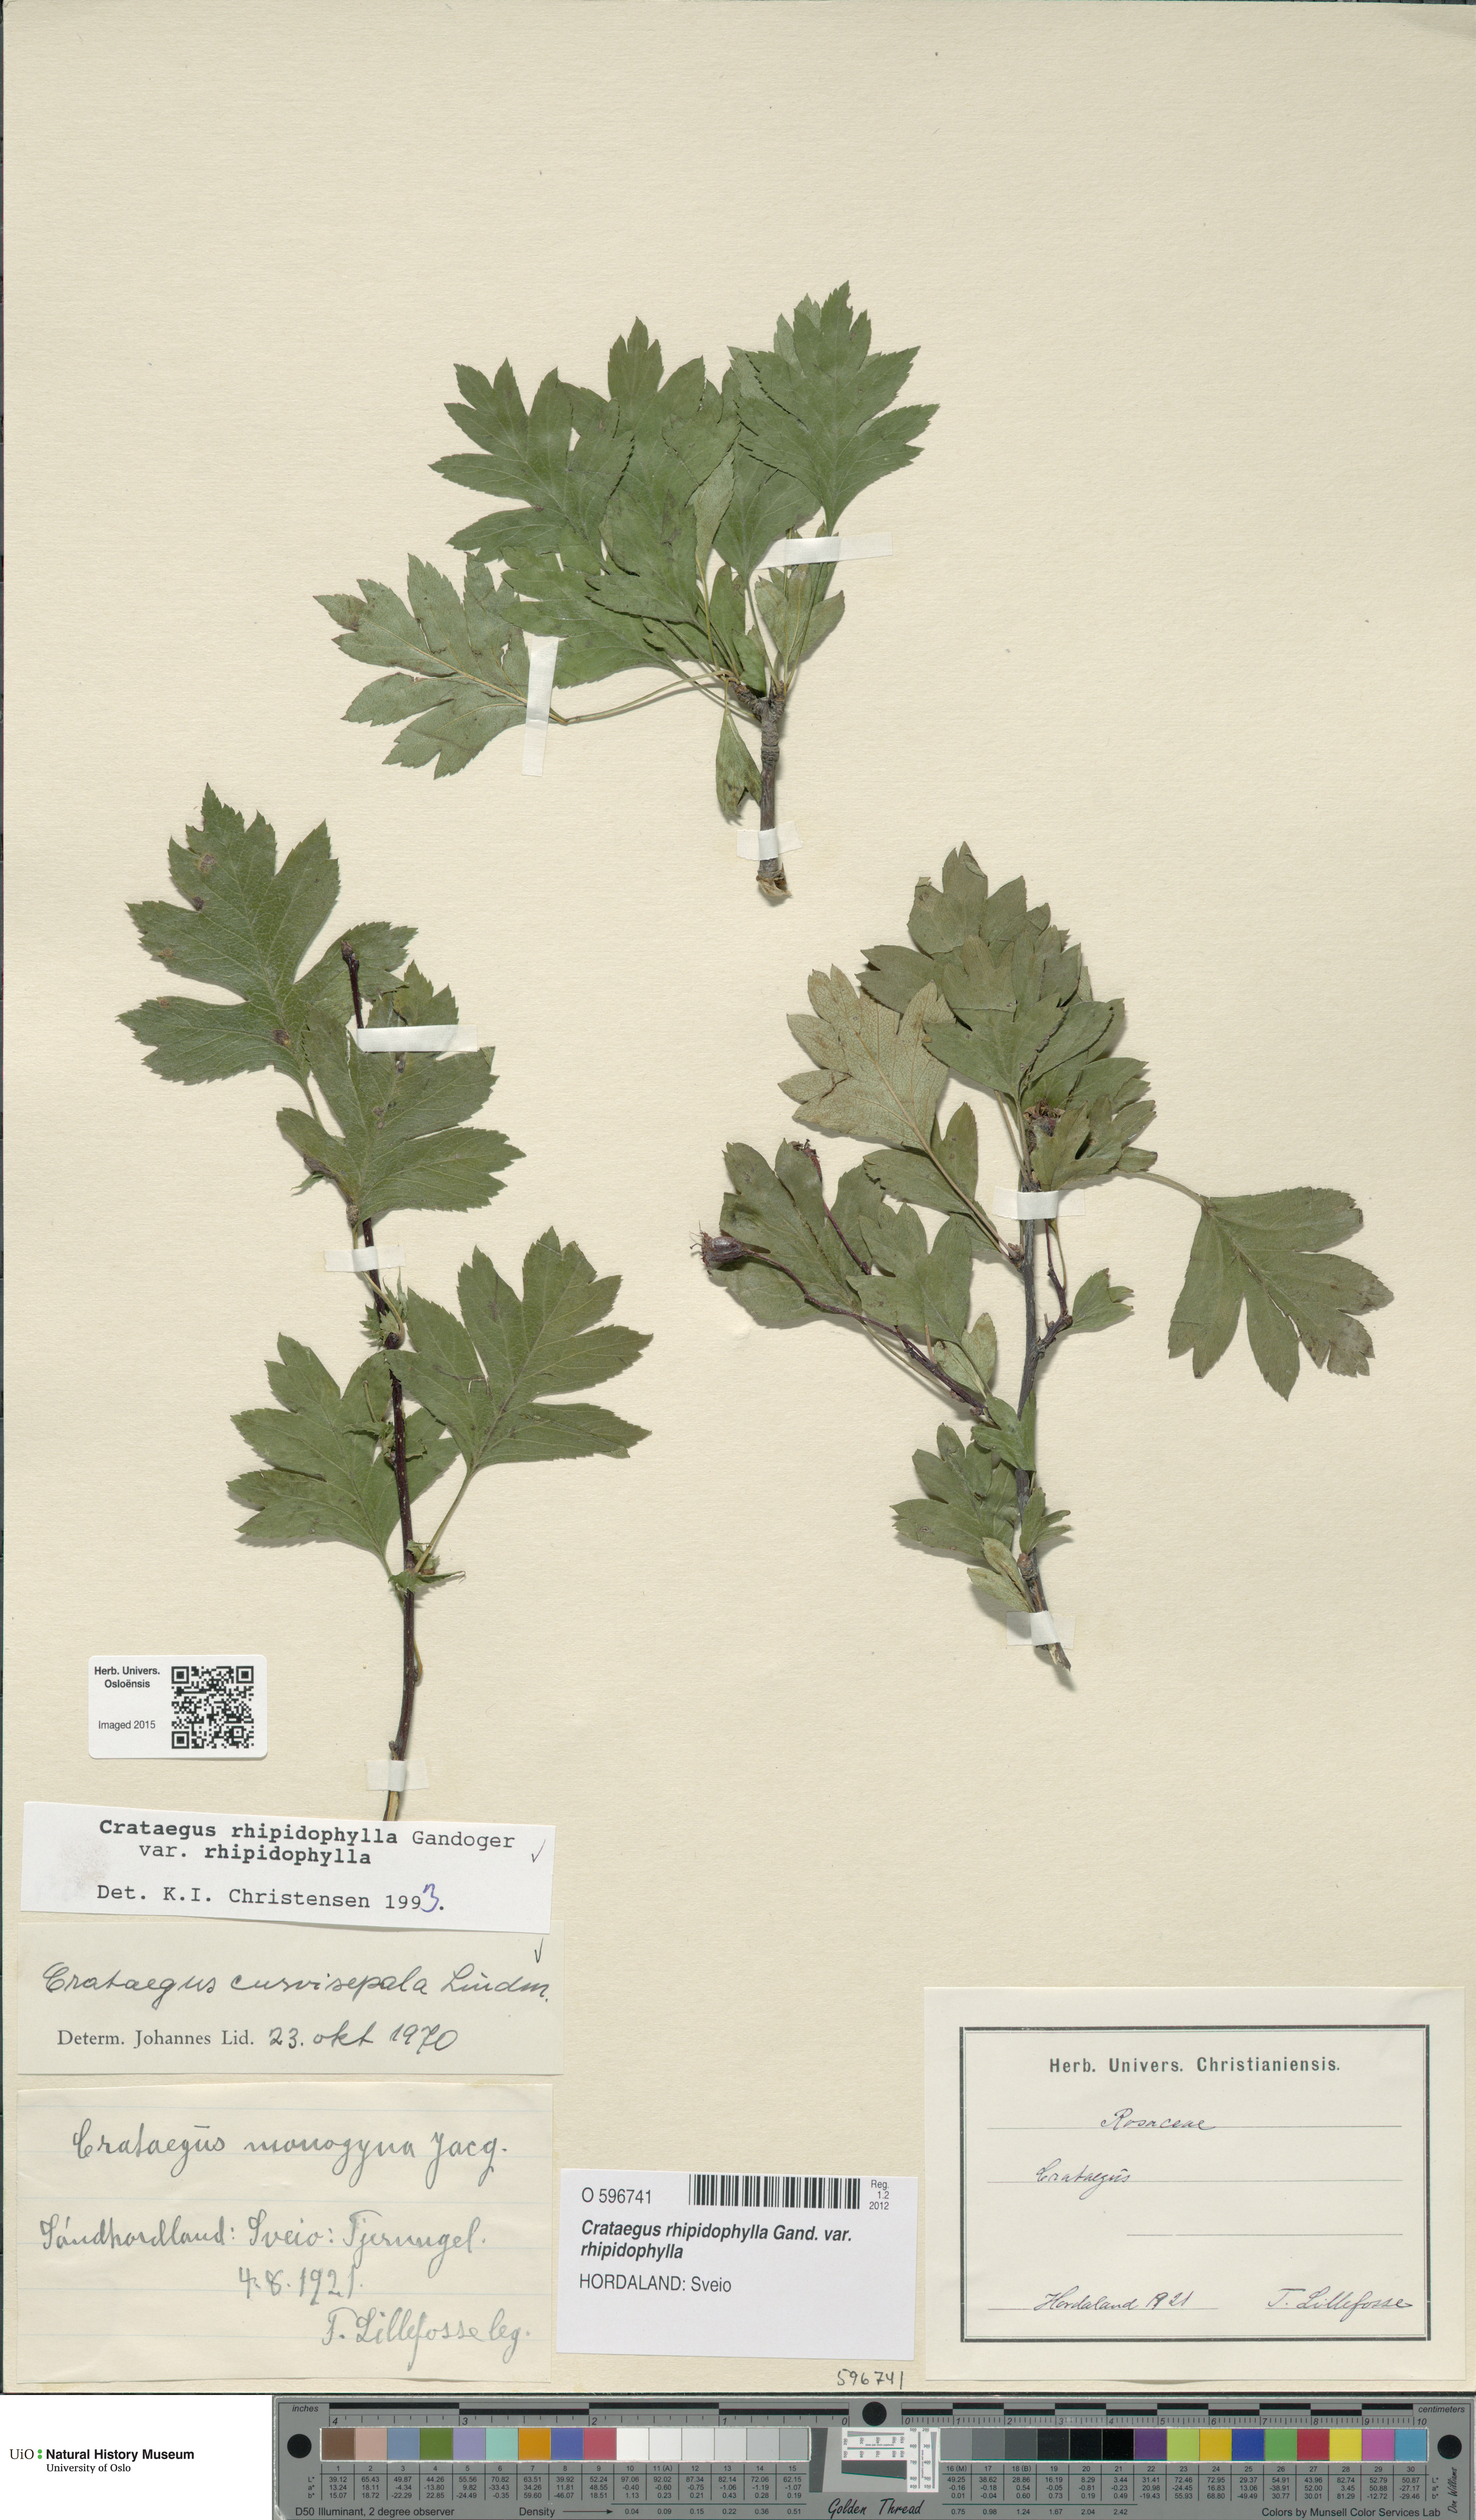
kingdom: Plantae
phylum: Tracheophyta
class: Magnoliopsida
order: Rosales
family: Rosaceae
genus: Crataegus
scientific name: Crataegus rhipidophylla
